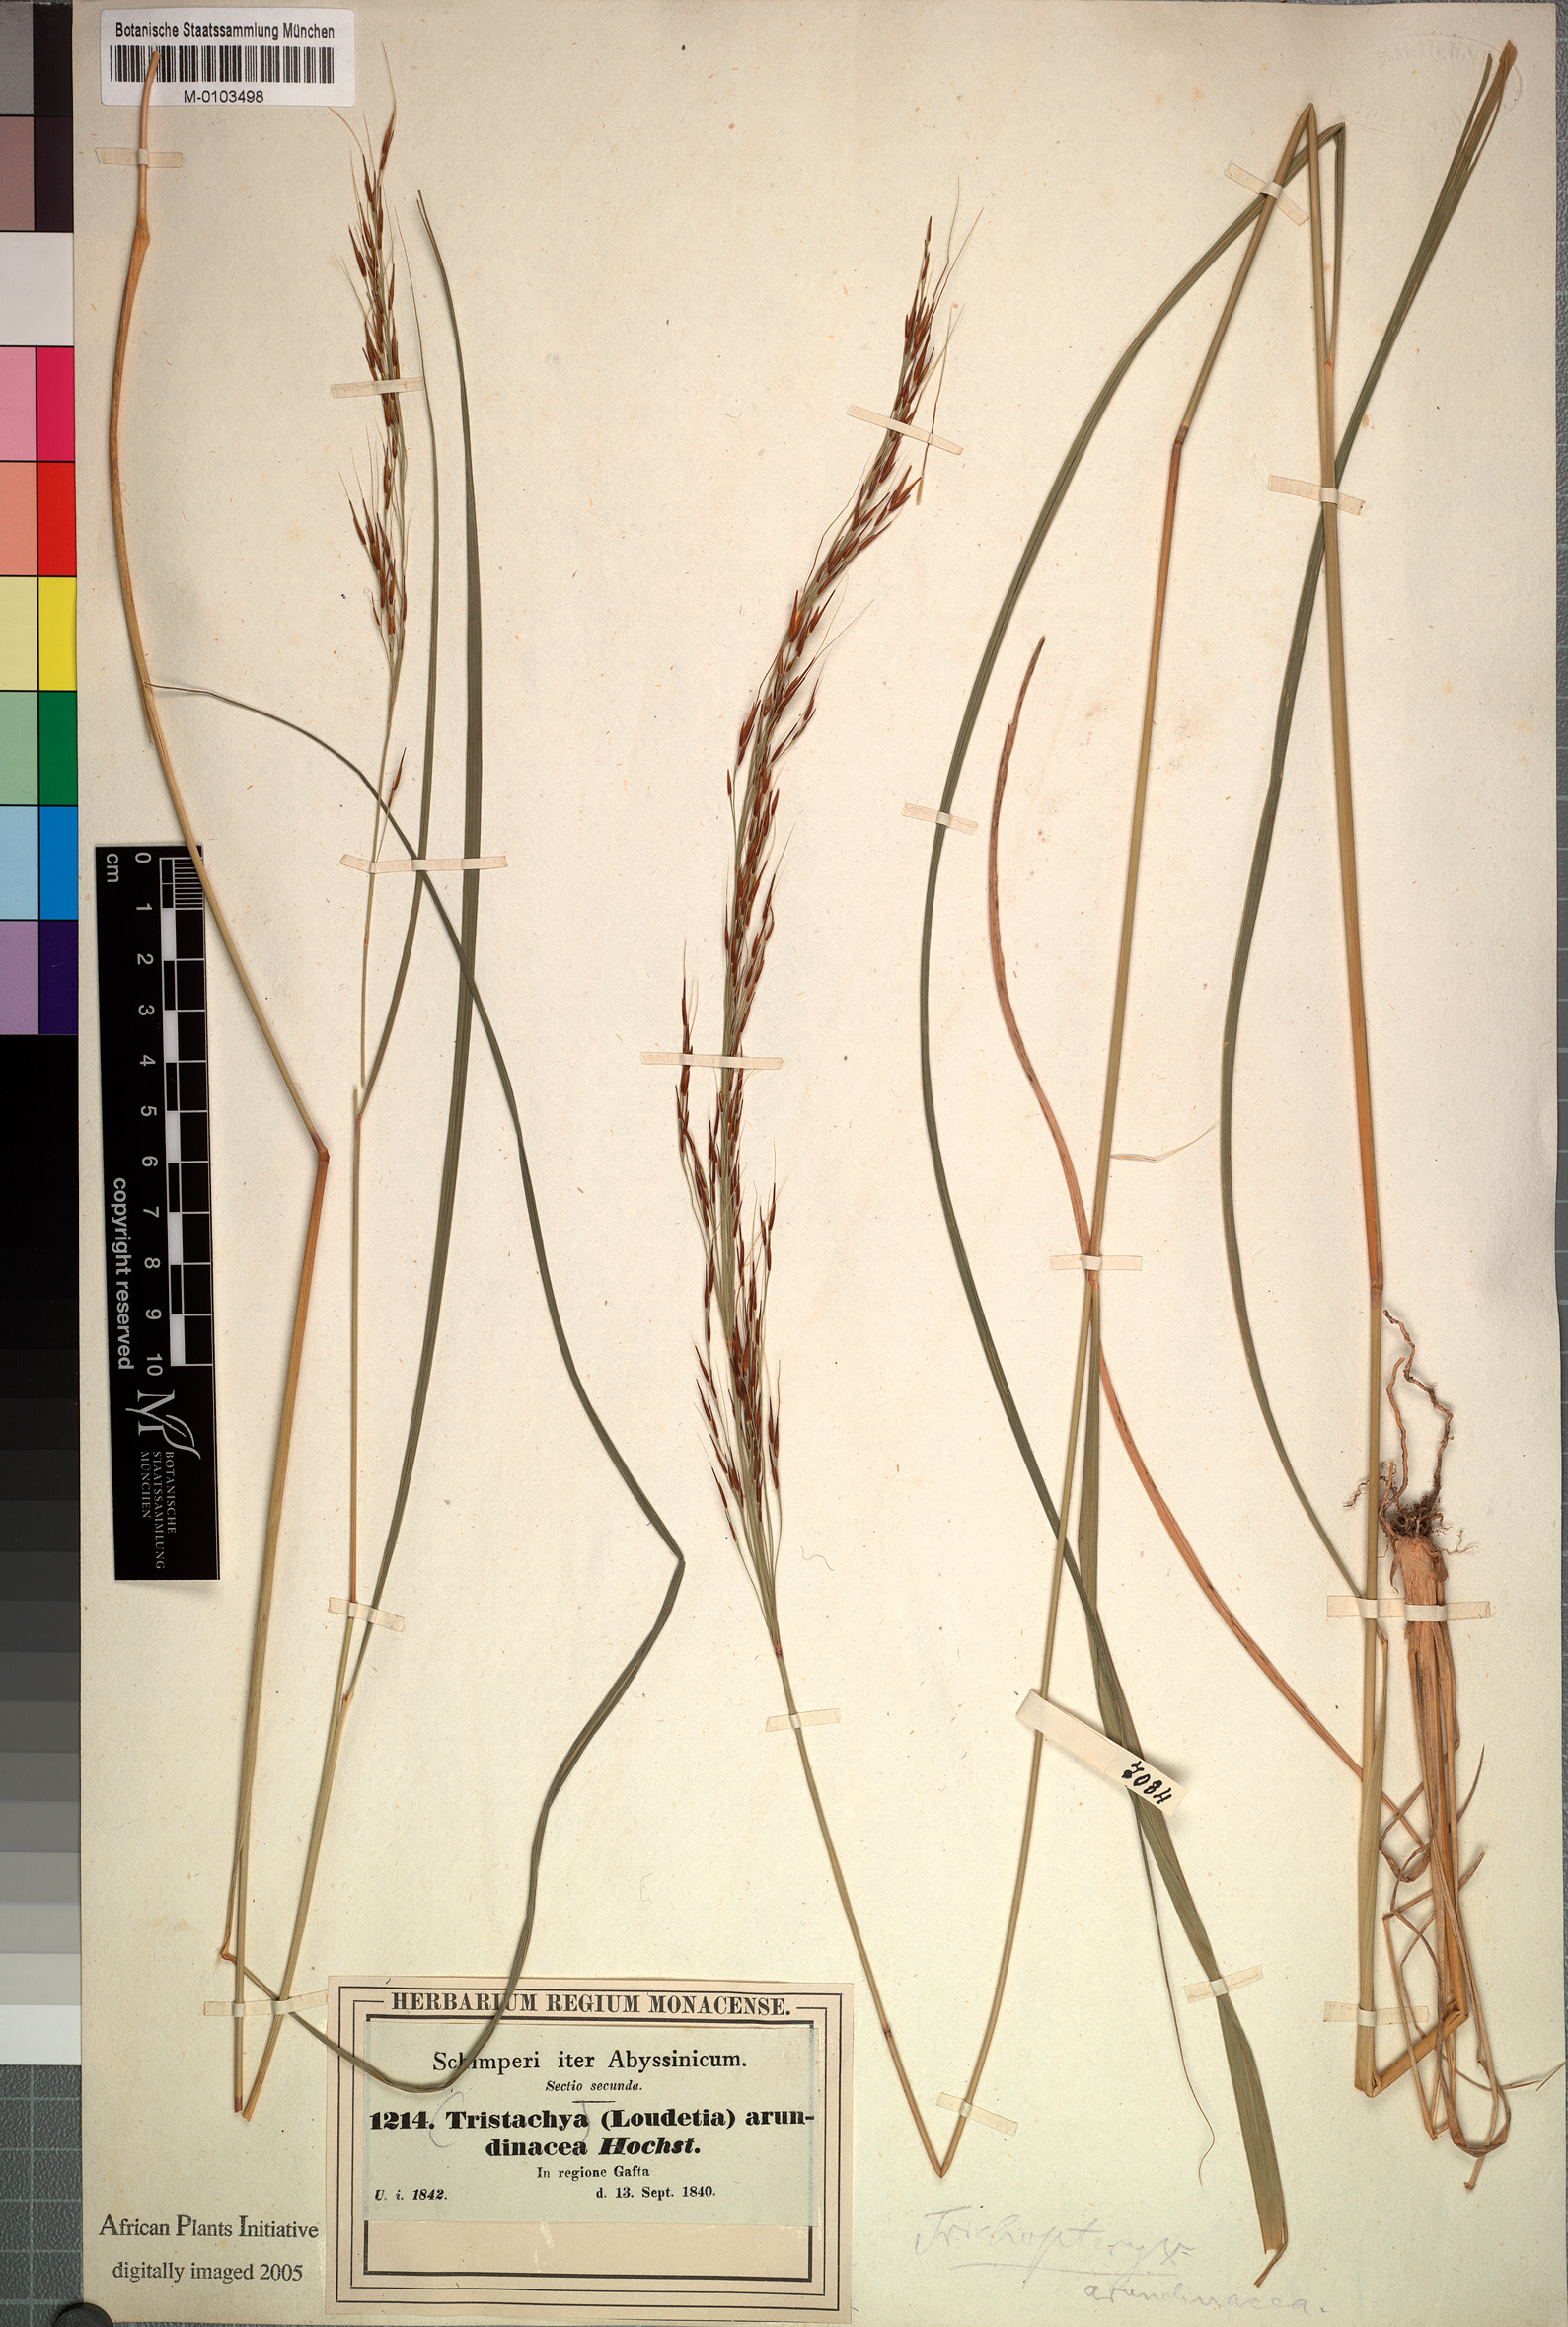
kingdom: Plantae
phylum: Tracheophyta
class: Liliopsida
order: Poales
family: Poaceae
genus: Loudetia
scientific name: Loudetia arundinacea
